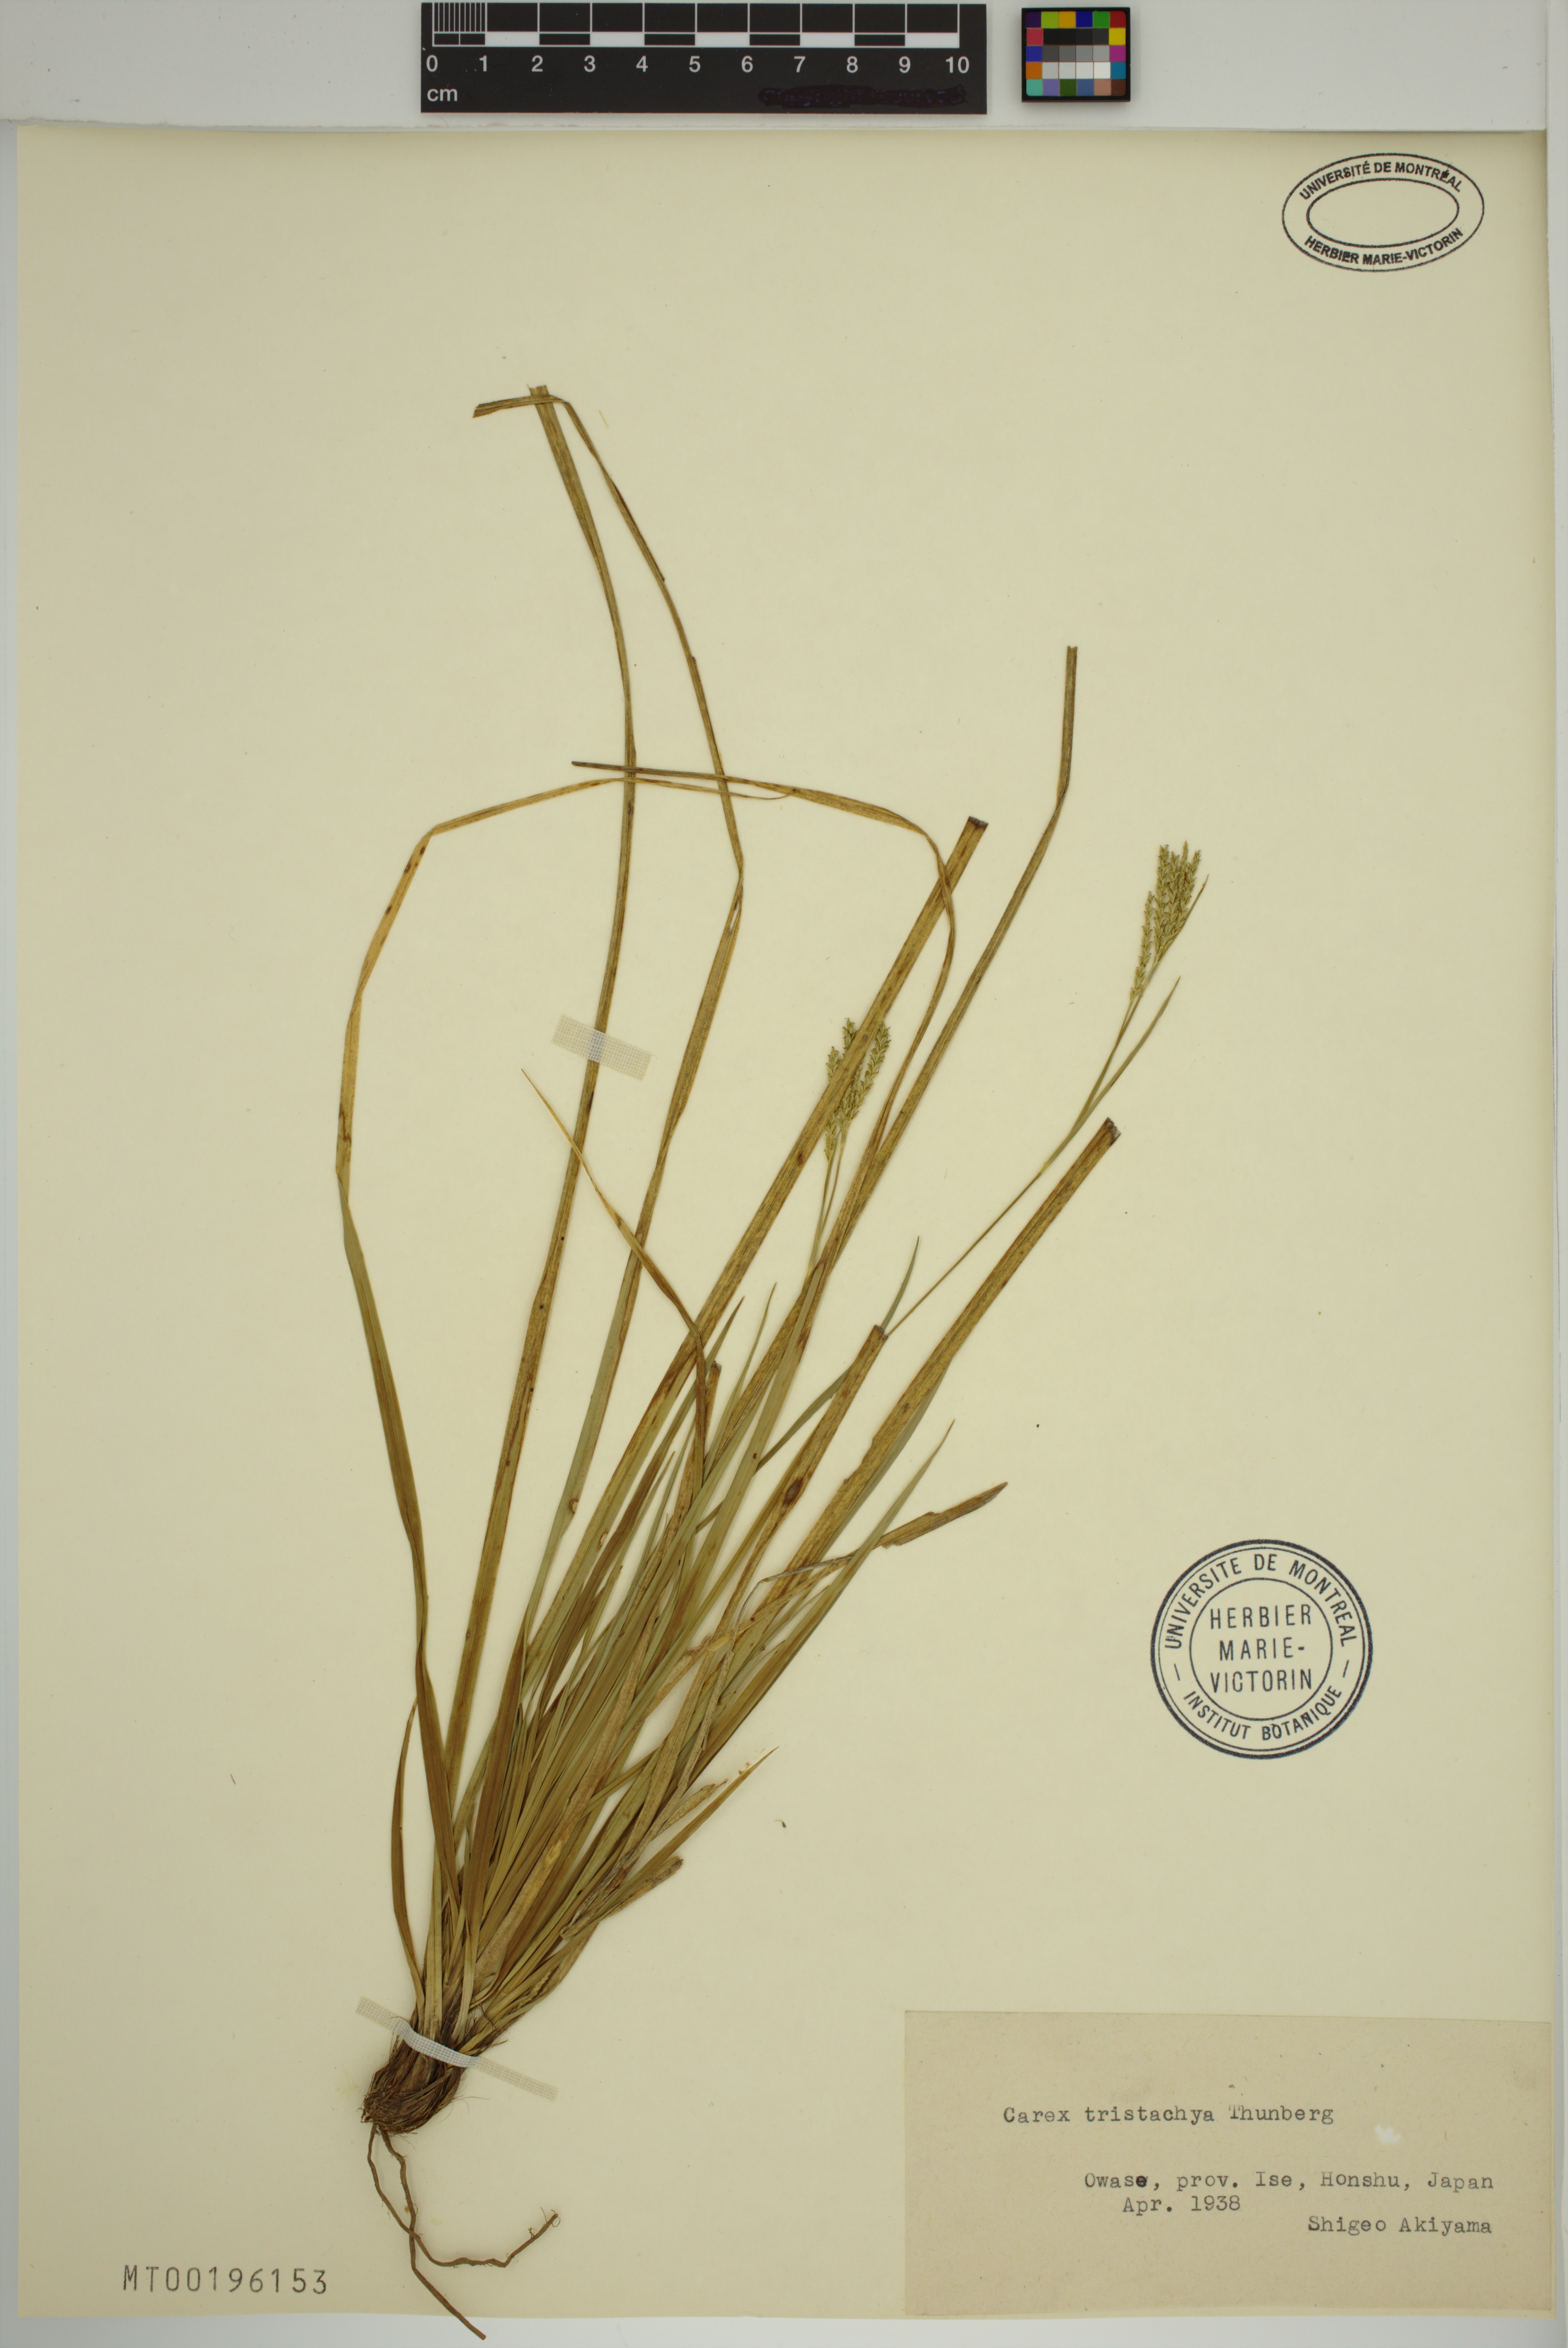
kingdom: Plantae
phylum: Tracheophyta
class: Liliopsida
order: Poales
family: Cyperaceae
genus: Carex
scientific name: Carex tristachya
